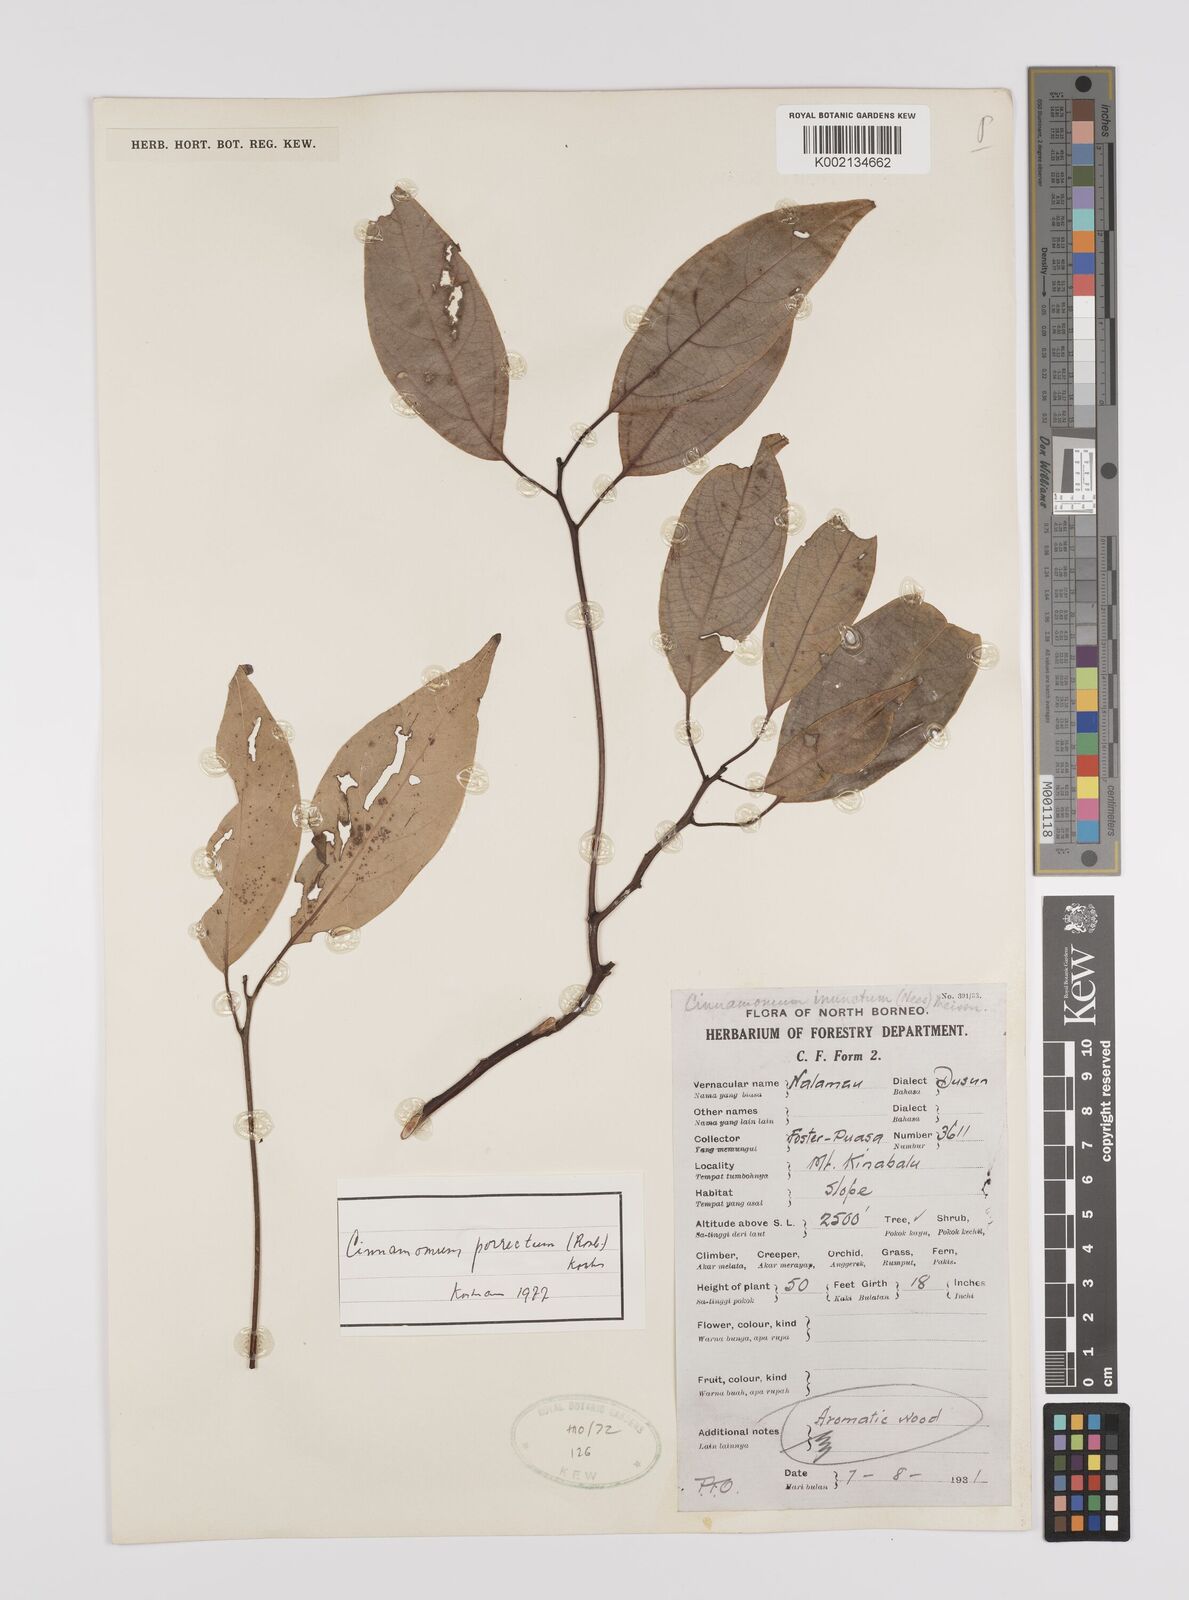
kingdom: Plantae
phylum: Tracheophyta
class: Magnoliopsida
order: Laurales
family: Lauraceae
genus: Cinnamomum
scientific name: Cinnamomum parthenoxylon
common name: Martaban camphor wood
